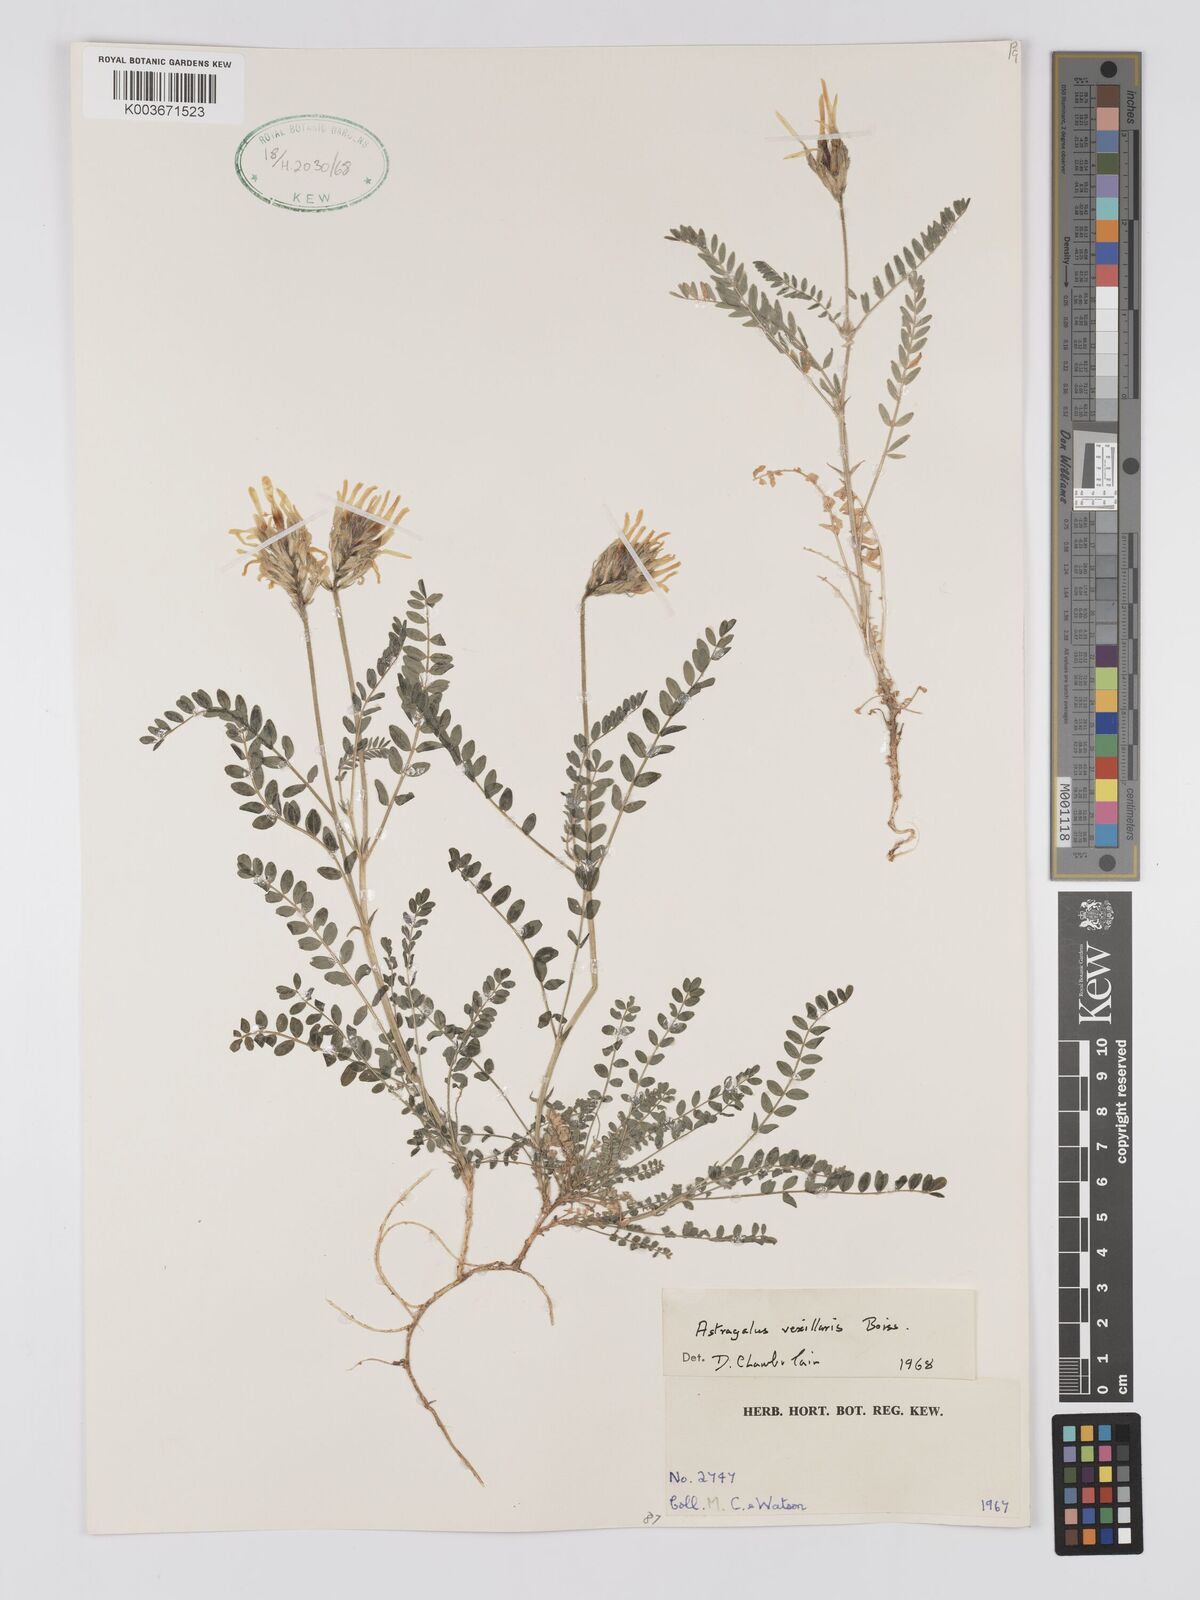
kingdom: Plantae
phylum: Tracheophyta
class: Magnoliopsida
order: Fabales
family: Fabaceae
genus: Astragalus
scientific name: Astragalus vexillaris
